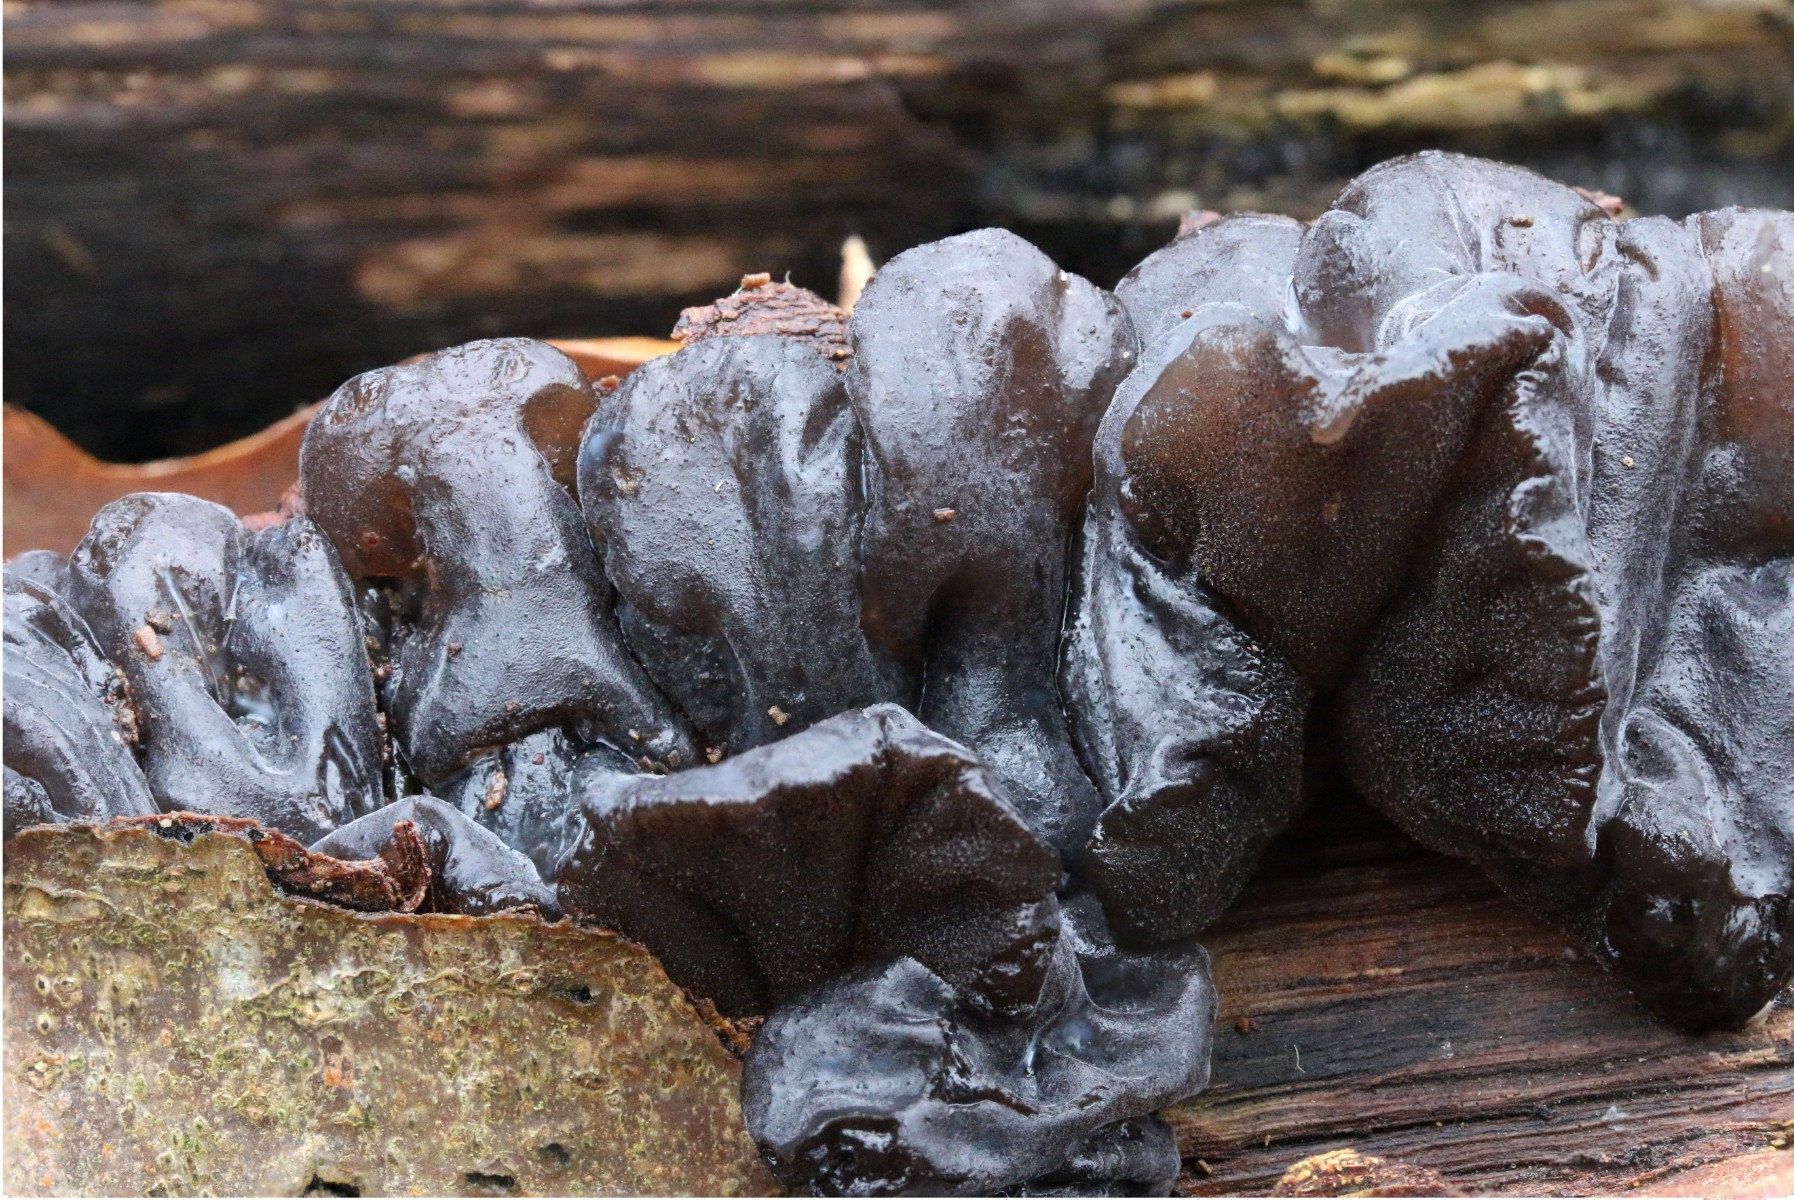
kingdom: Fungi
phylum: Basidiomycota
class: Agaricomycetes
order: Auriculariales
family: Auriculariaceae
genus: Exidia
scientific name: Exidia glandulosa
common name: ege-bævretop
